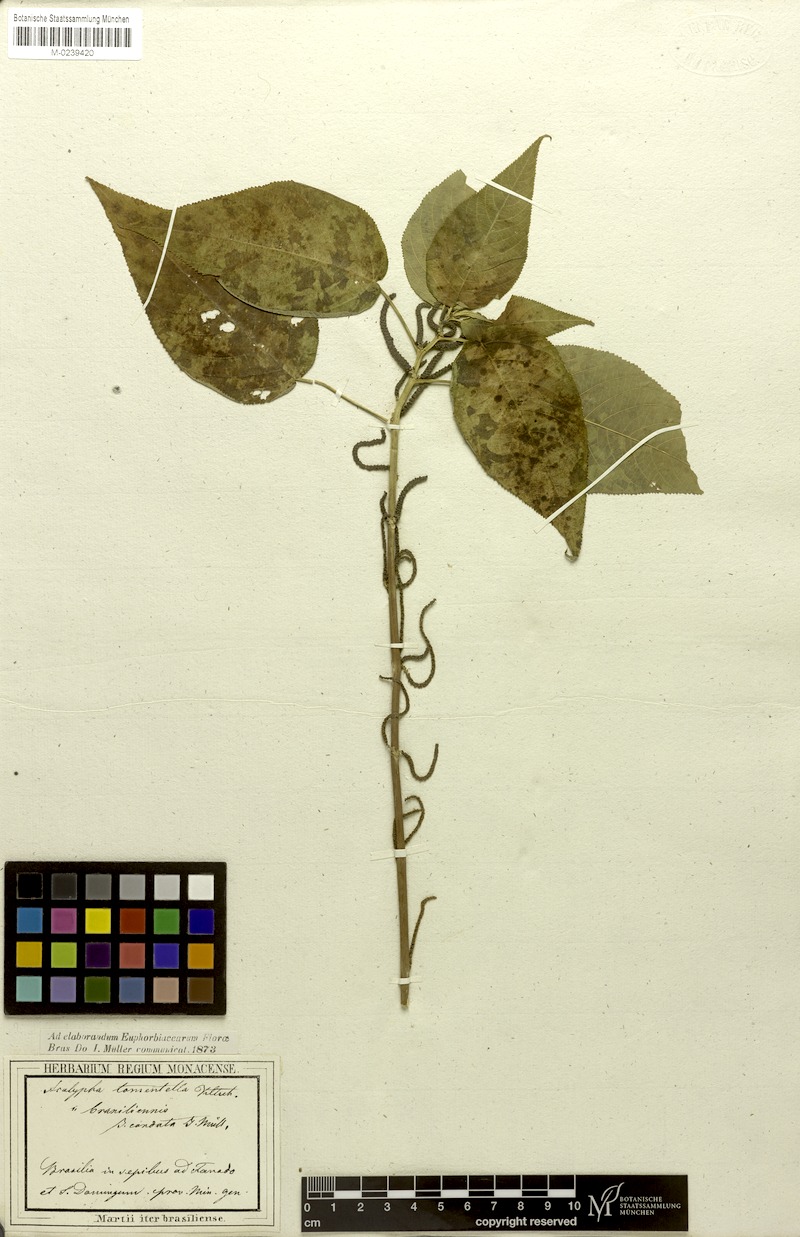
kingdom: Plantae
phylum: Tracheophyta
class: Magnoliopsida
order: Malpighiales
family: Euphorbiaceae
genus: Acalypha
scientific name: Acalypha brasiliensis
